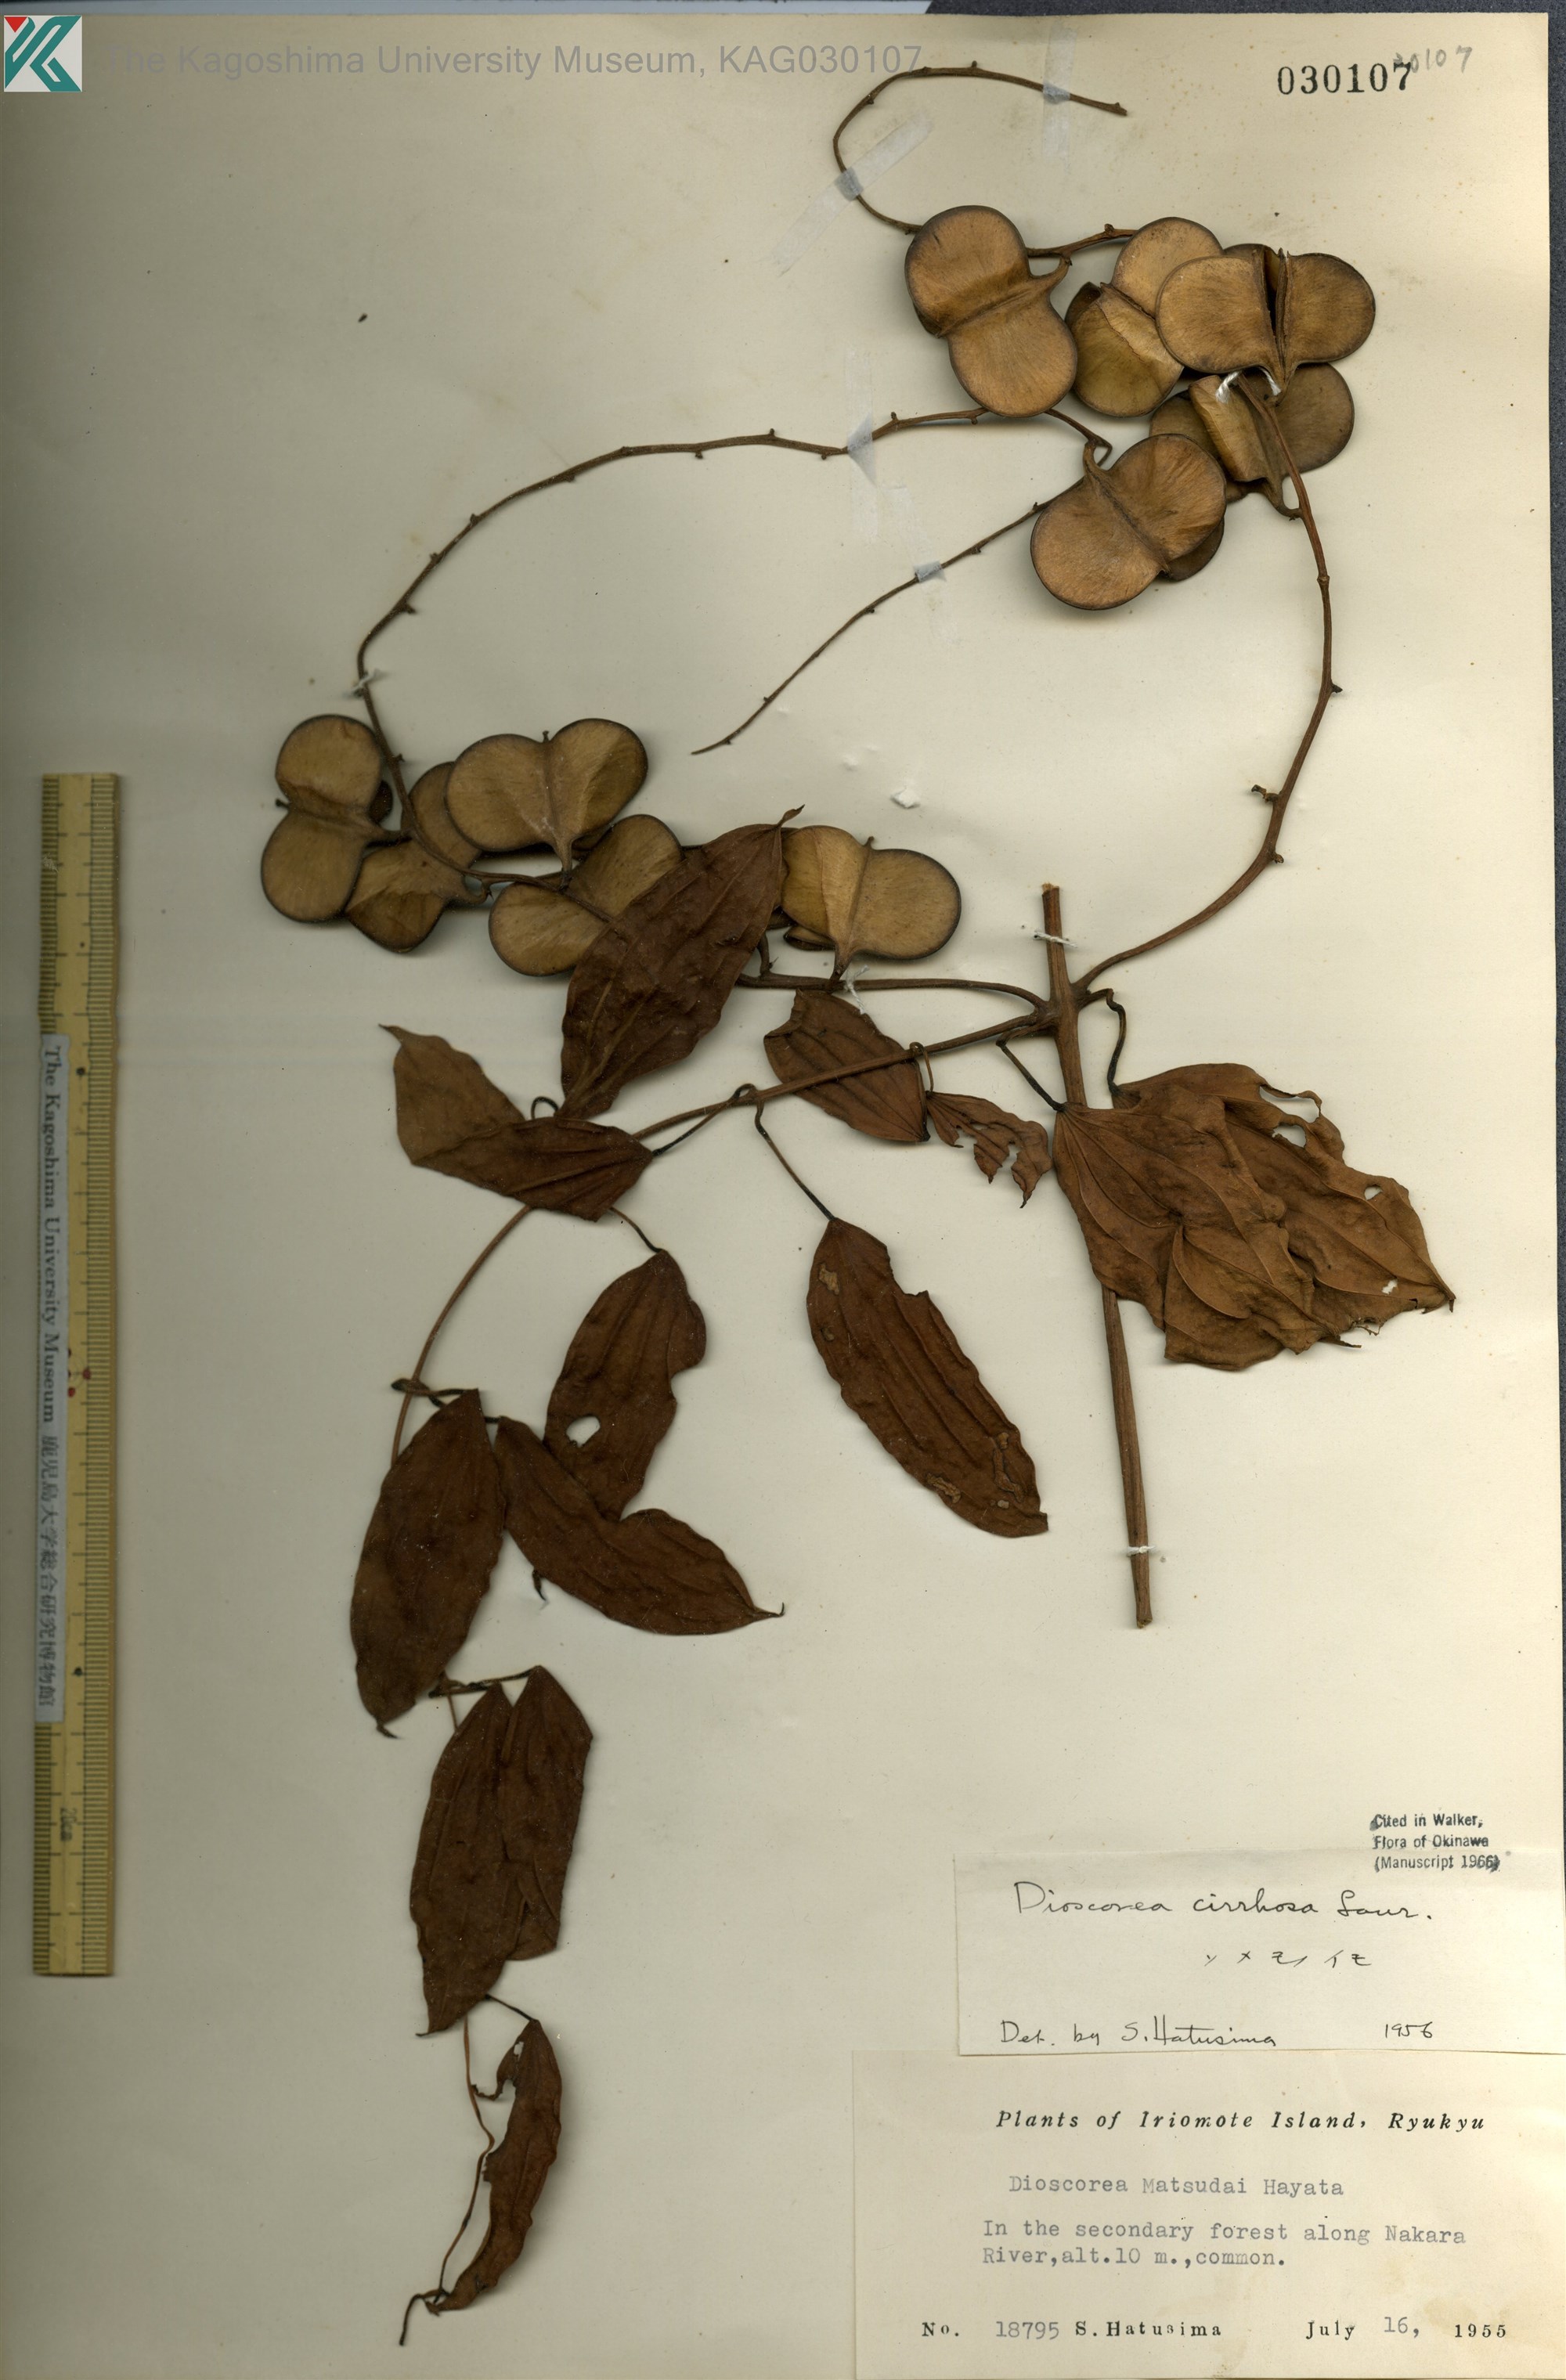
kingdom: Plantae
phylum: Tracheophyta
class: Liliopsida
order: Dioscoreales
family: Dioscoreaceae
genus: Dioscorea
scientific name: Dioscorea cirrhosa
